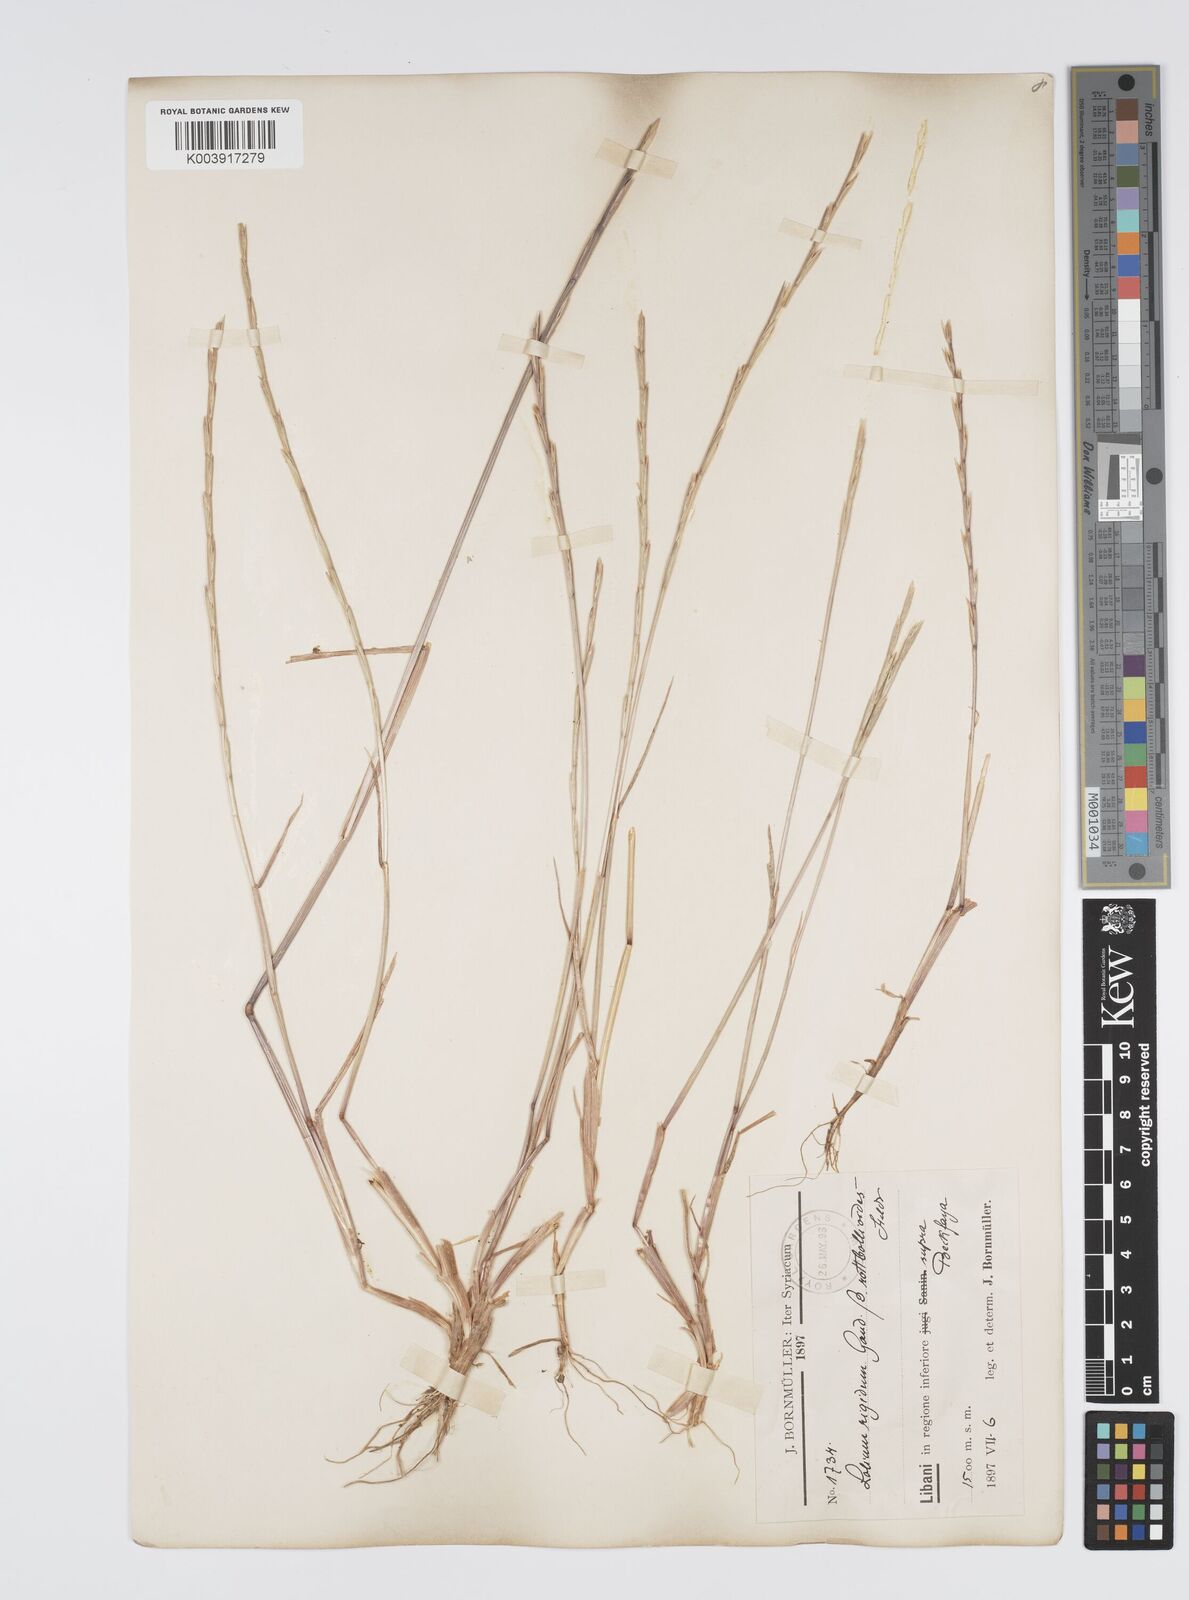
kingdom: Plantae
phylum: Tracheophyta
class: Liliopsida
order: Poales
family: Poaceae
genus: Lolium
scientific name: Lolium rigidum
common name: Wimmera ryegrass
